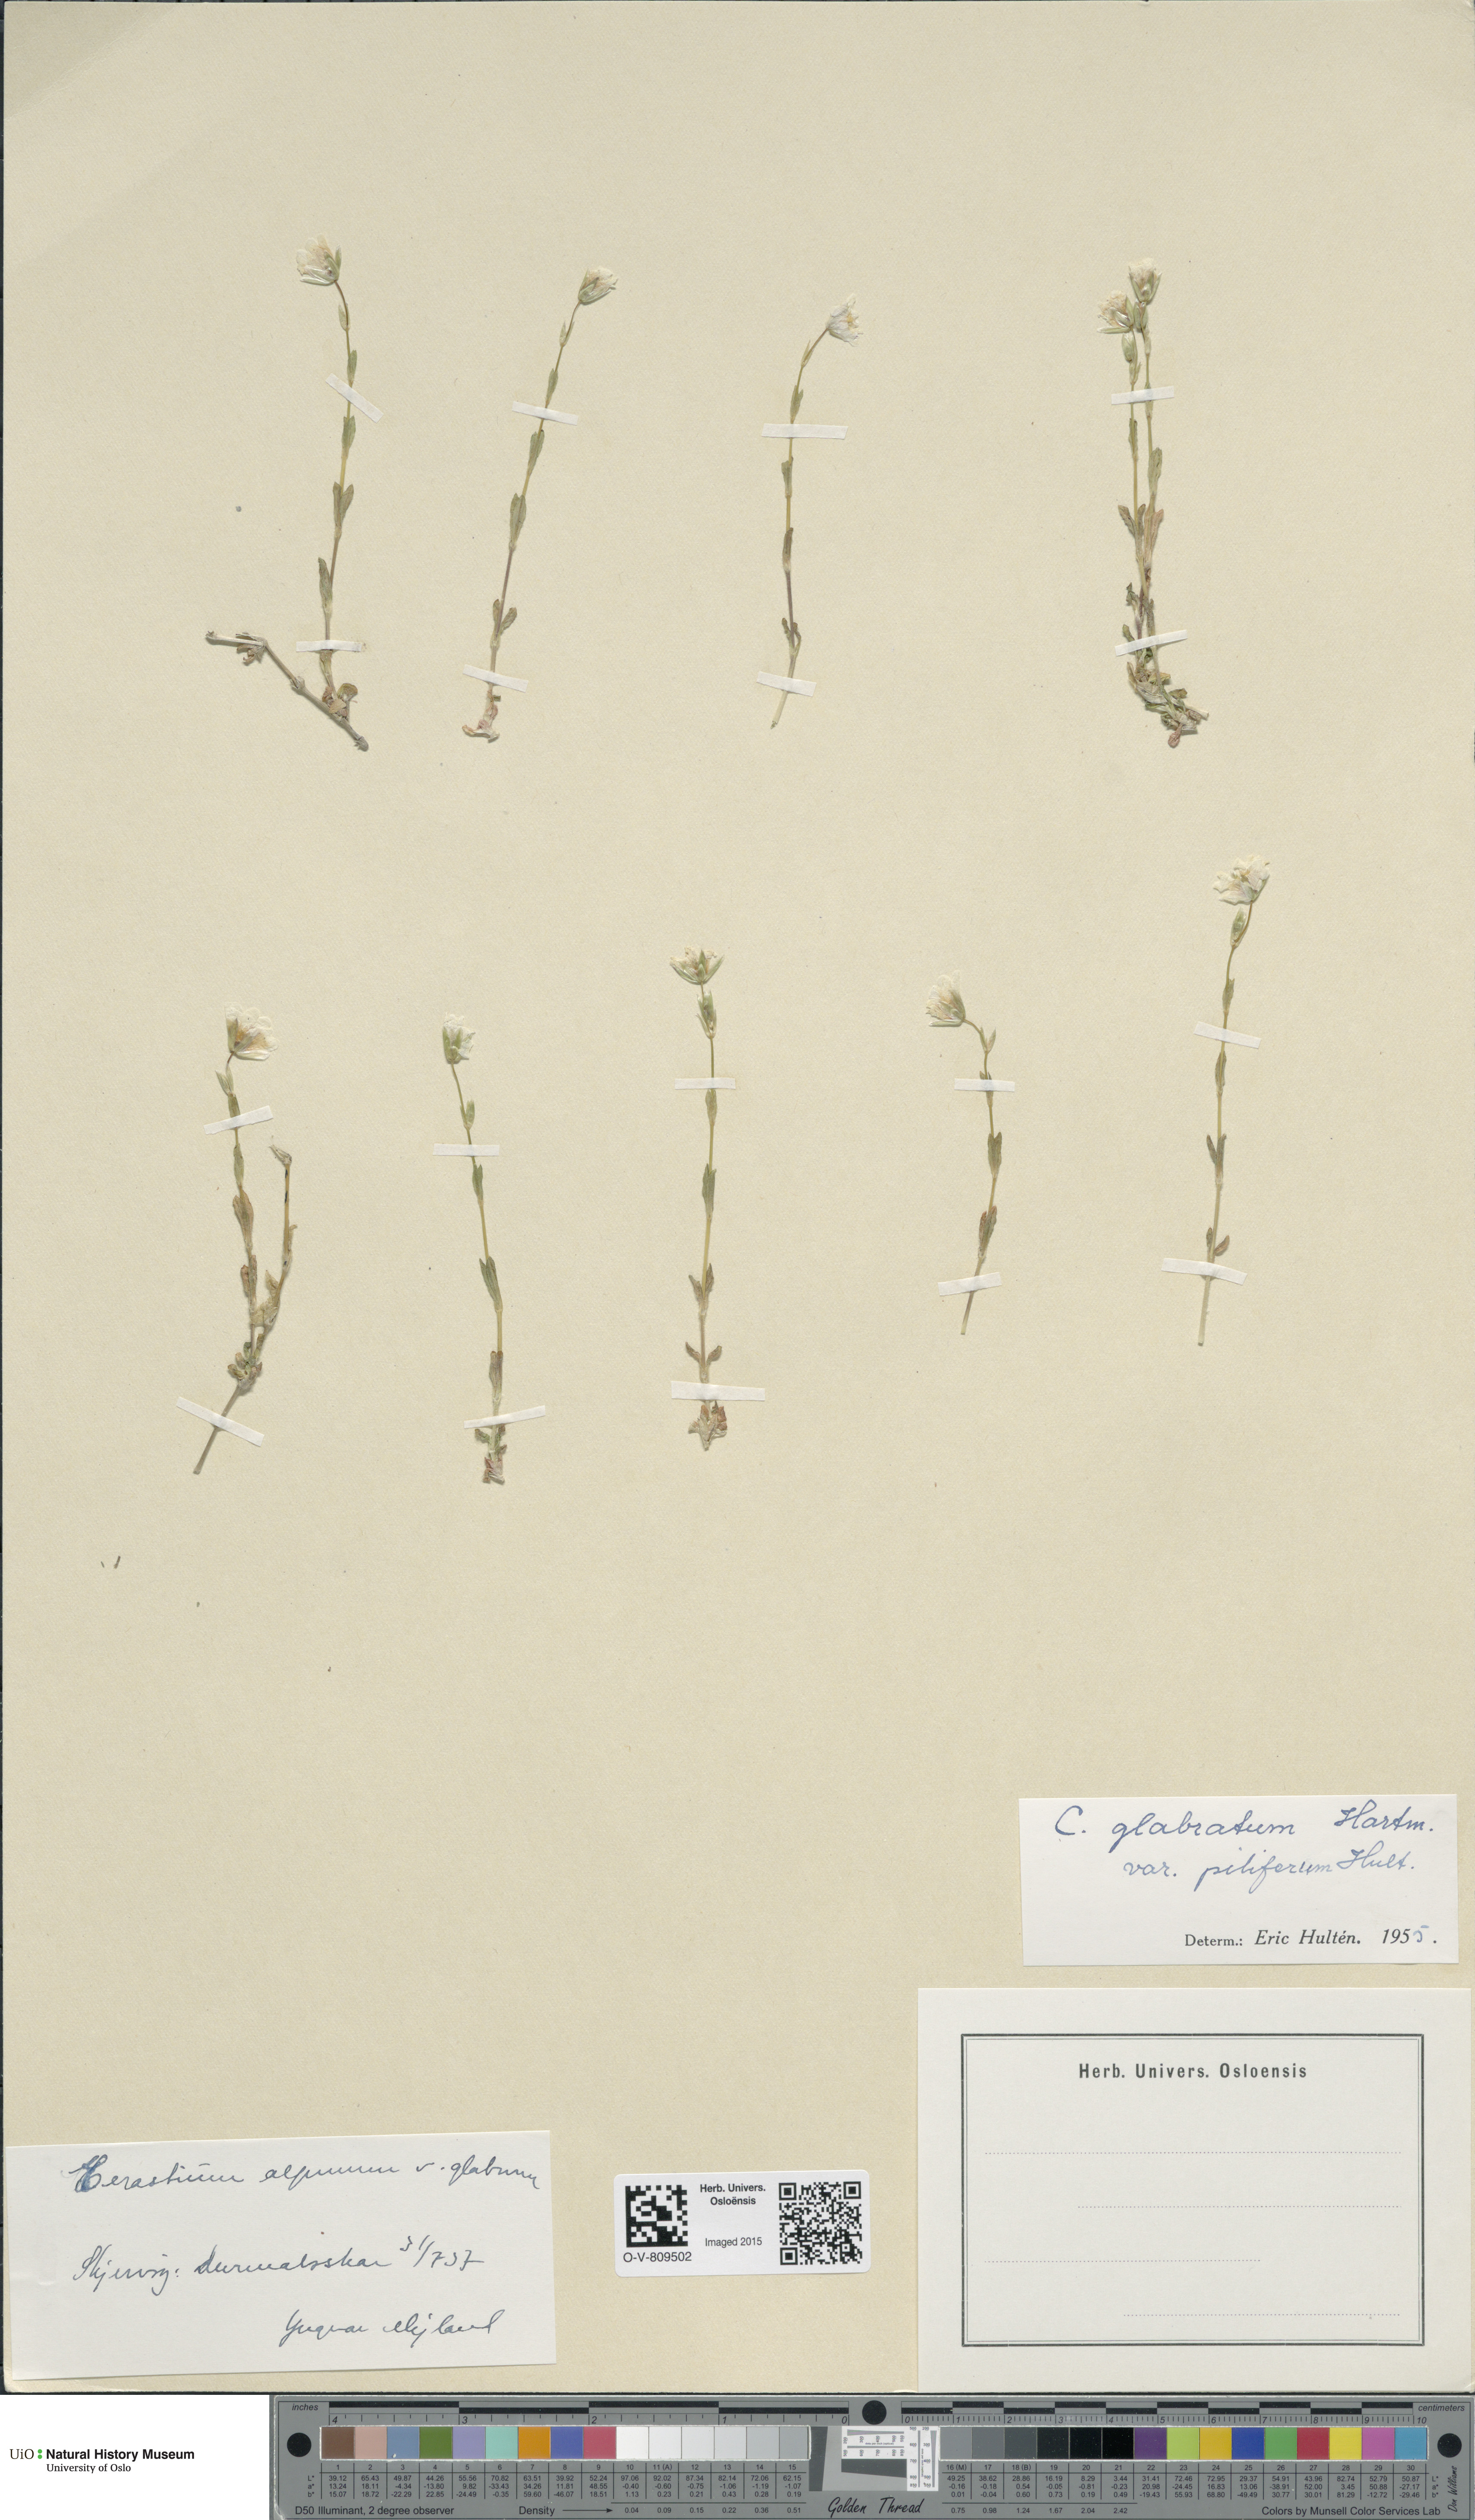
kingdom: Plantae
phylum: Tracheophyta
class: Magnoliopsida
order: Caryophyllales
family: Caryophyllaceae
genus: Cerastium
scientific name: Cerastium alpinum
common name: Alpine mouse-ear
